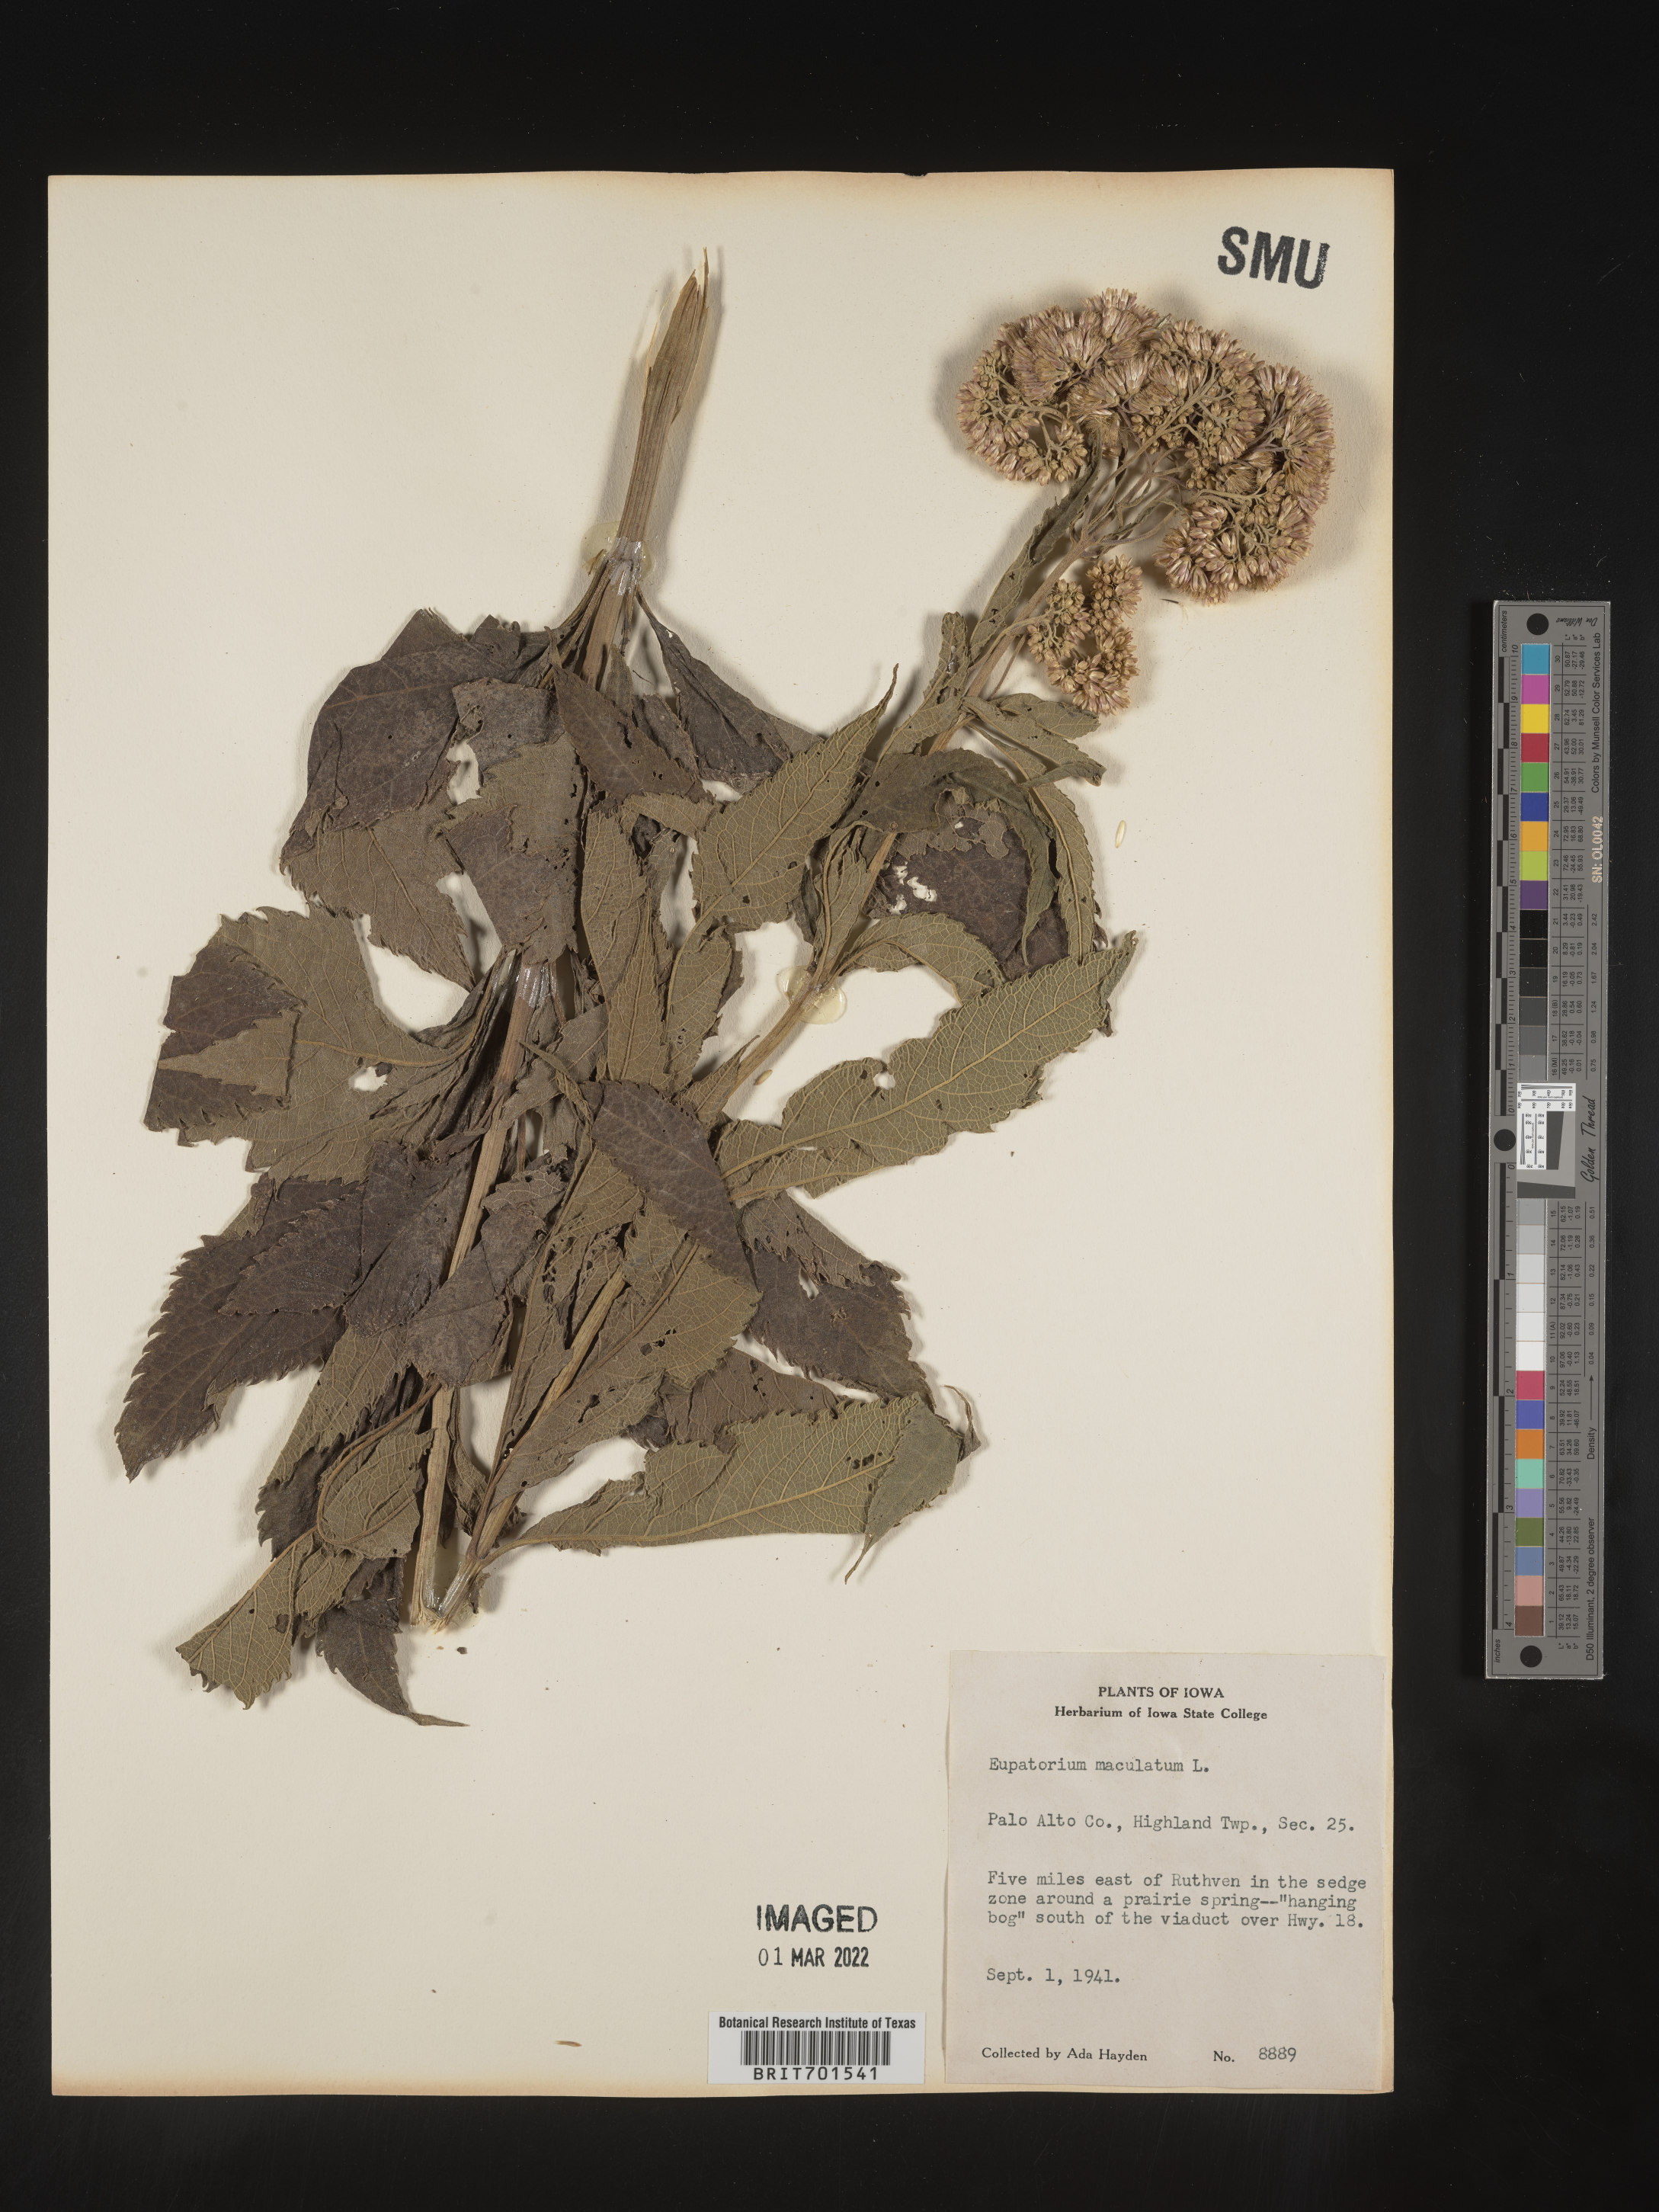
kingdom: Plantae
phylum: Tracheophyta
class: Magnoliopsida
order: Asterales
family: Asteraceae
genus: Eutrochium
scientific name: Eutrochium maculatum
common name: Spotted joe pye weed
